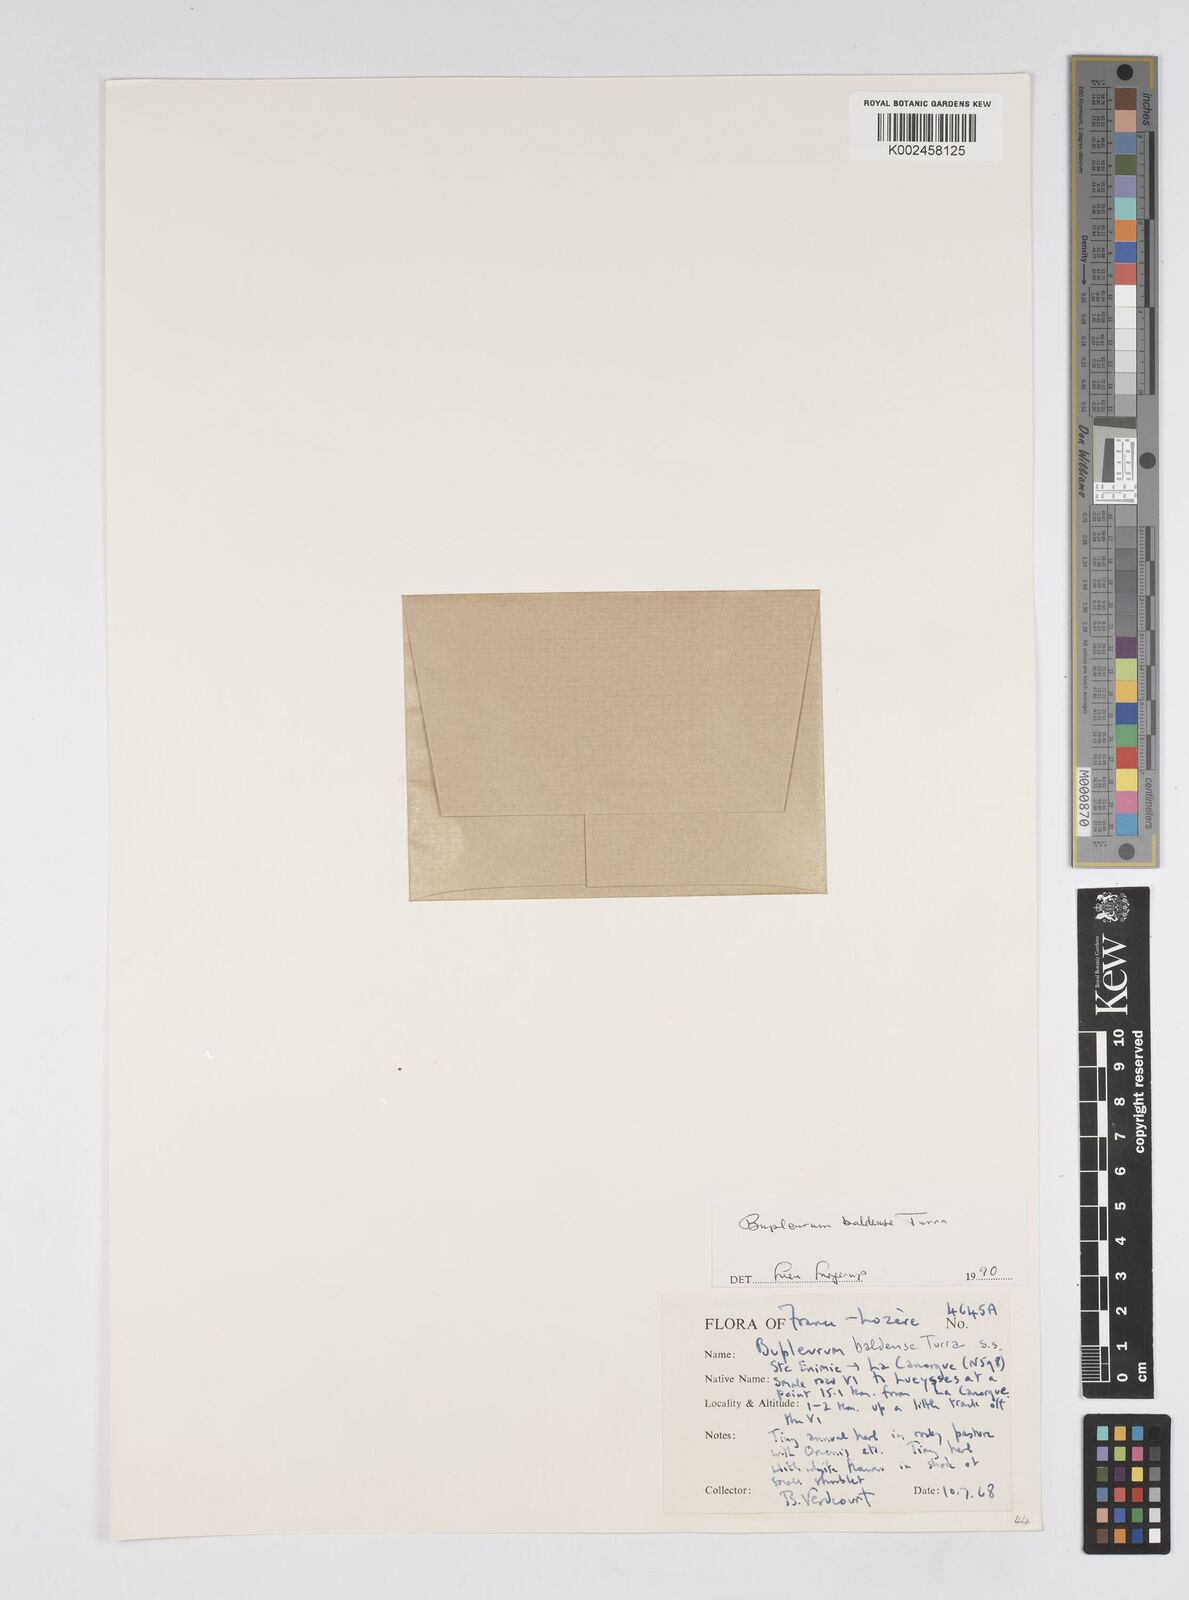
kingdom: Plantae
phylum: Tracheophyta
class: Magnoliopsida
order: Apiales
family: Apiaceae
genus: Bupleurum
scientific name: Bupleurum baldense
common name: Small hare's-ear
